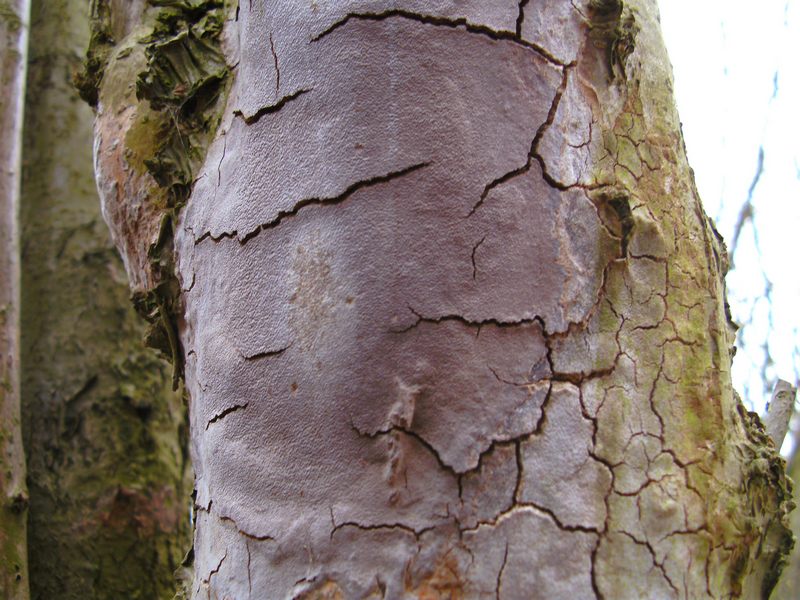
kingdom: Fungi
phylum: Basidiomycota
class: Agaricomycetes
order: Hymenochaetales
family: Hymenochaetaceae
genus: Fomitiporia
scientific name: Fomitiporia punctata
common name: pude-ildporesvamp
